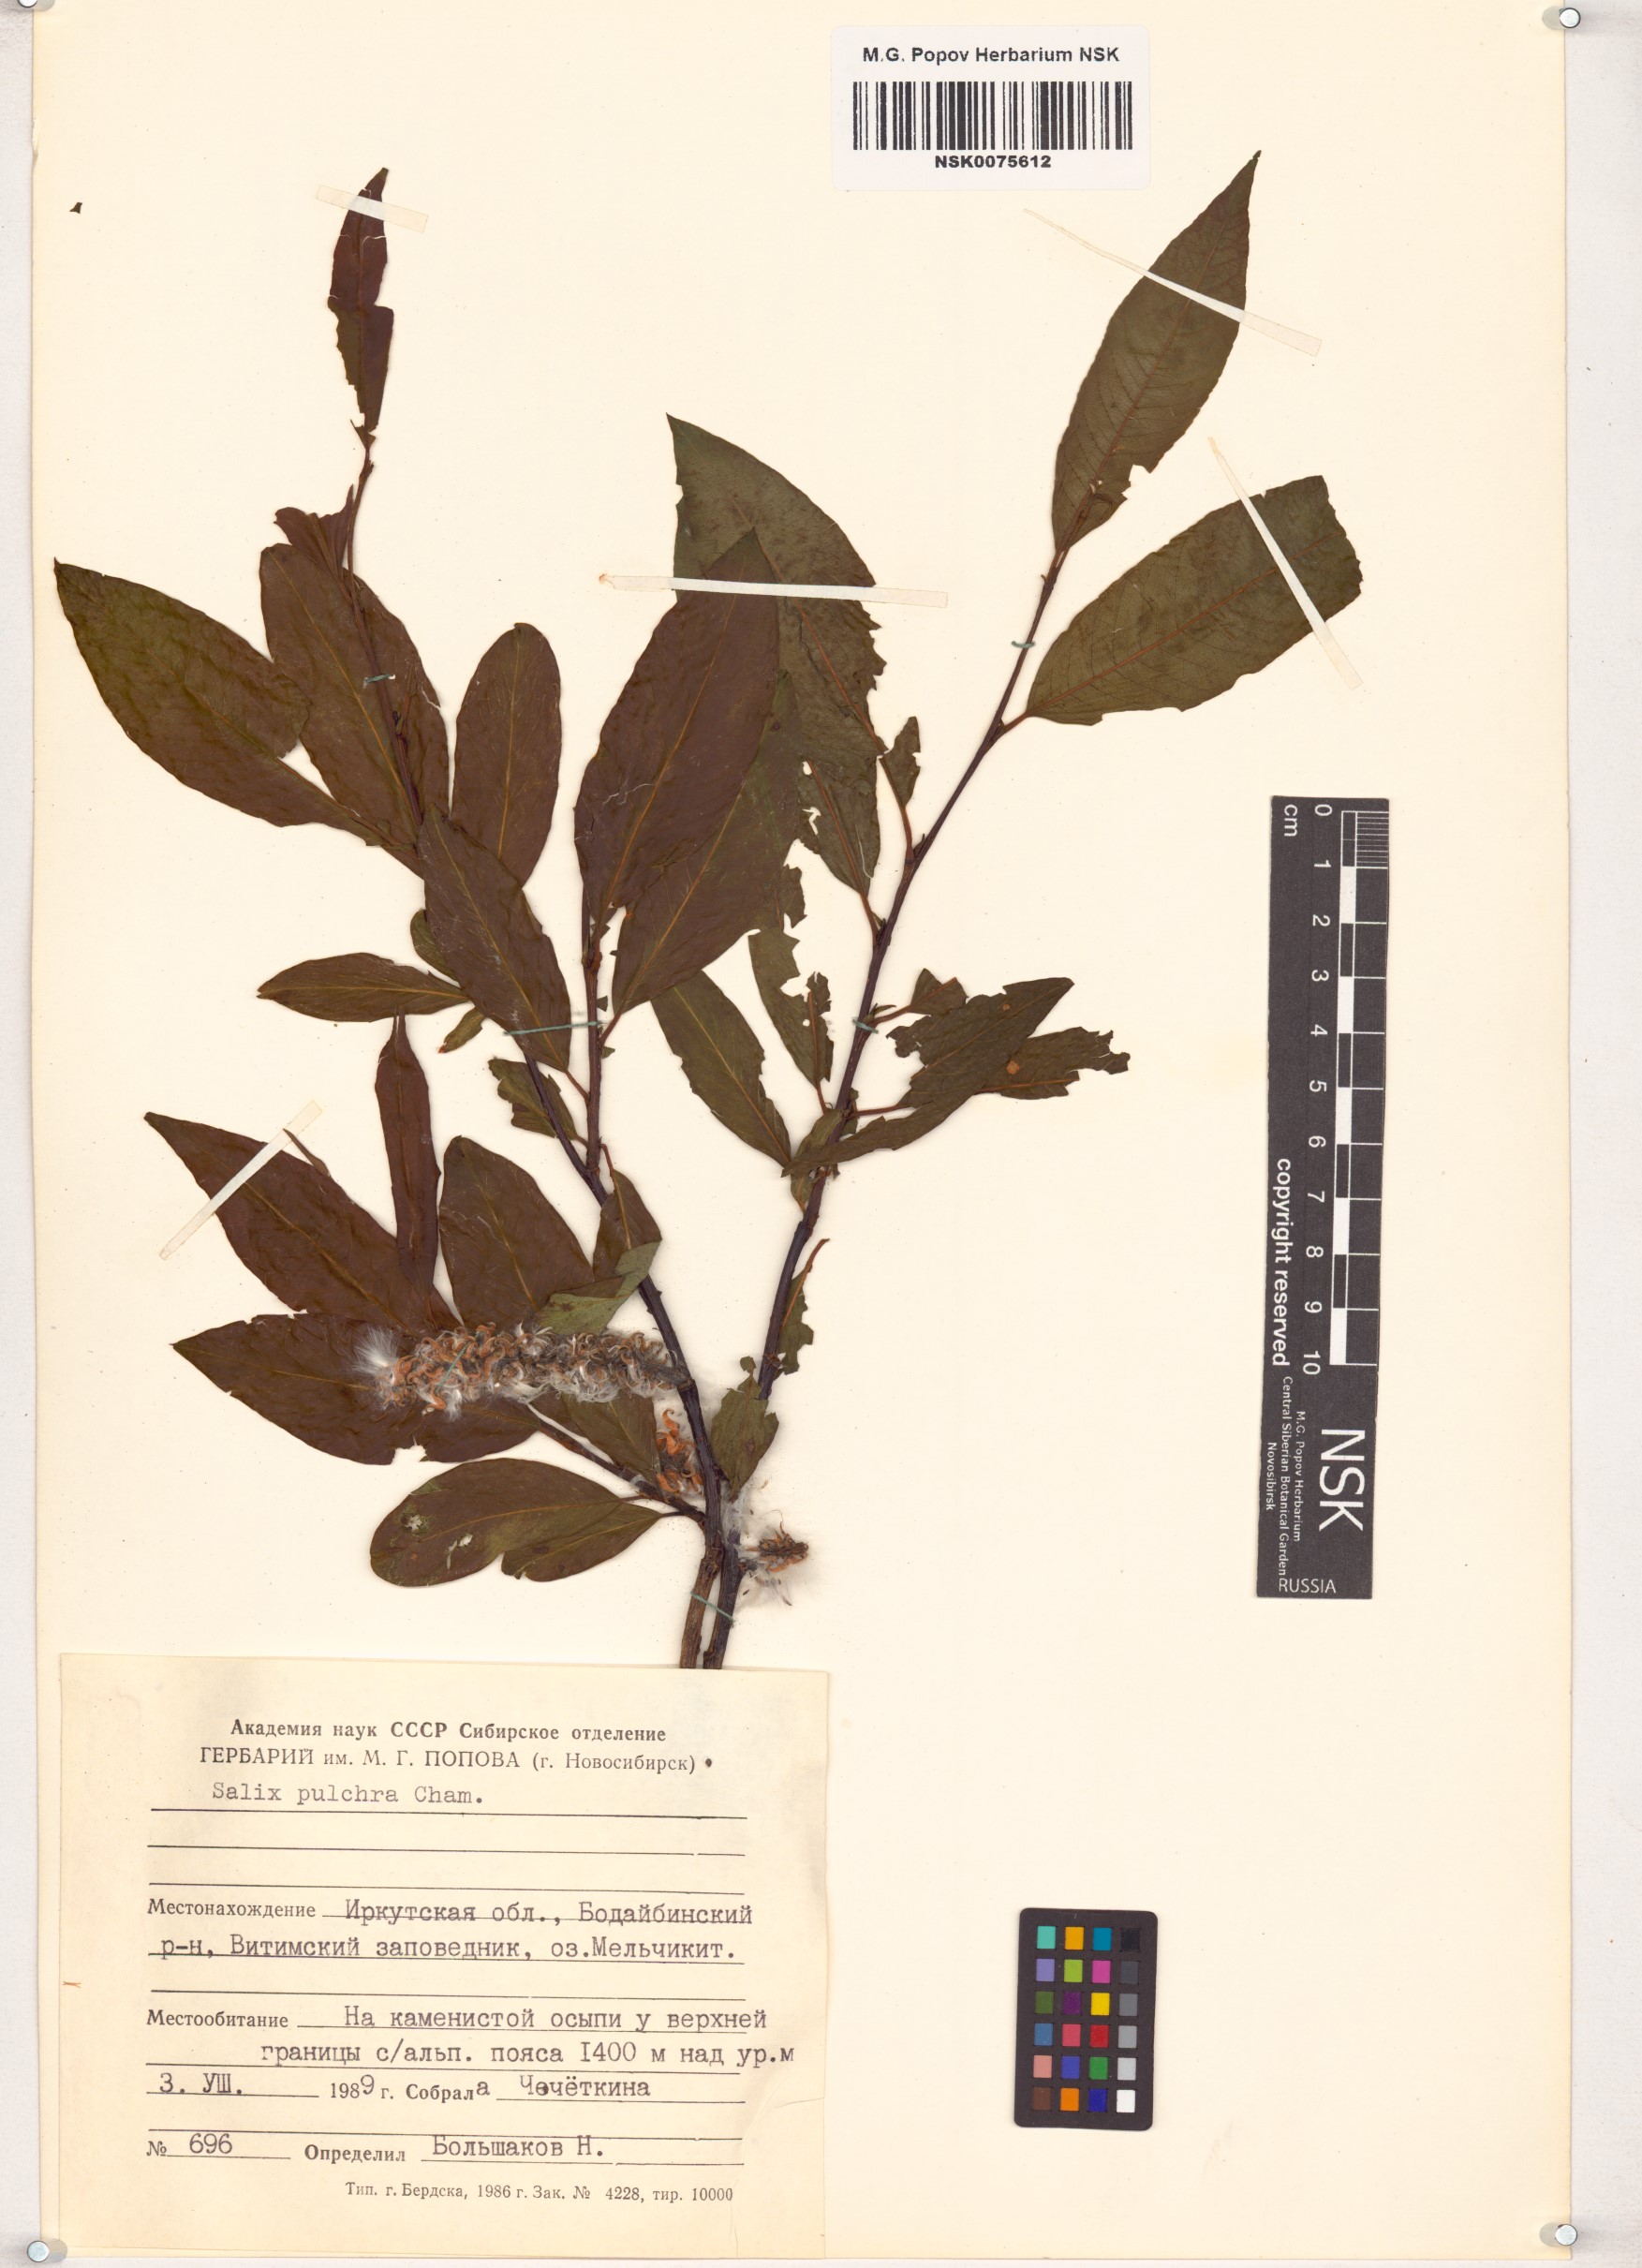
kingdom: Plantae
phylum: Tracheophyta
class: Magnoliopsida
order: Malpighiales
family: Salicaceae
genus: Salix
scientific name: Salix pulchra
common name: Diamond-leaved willow
